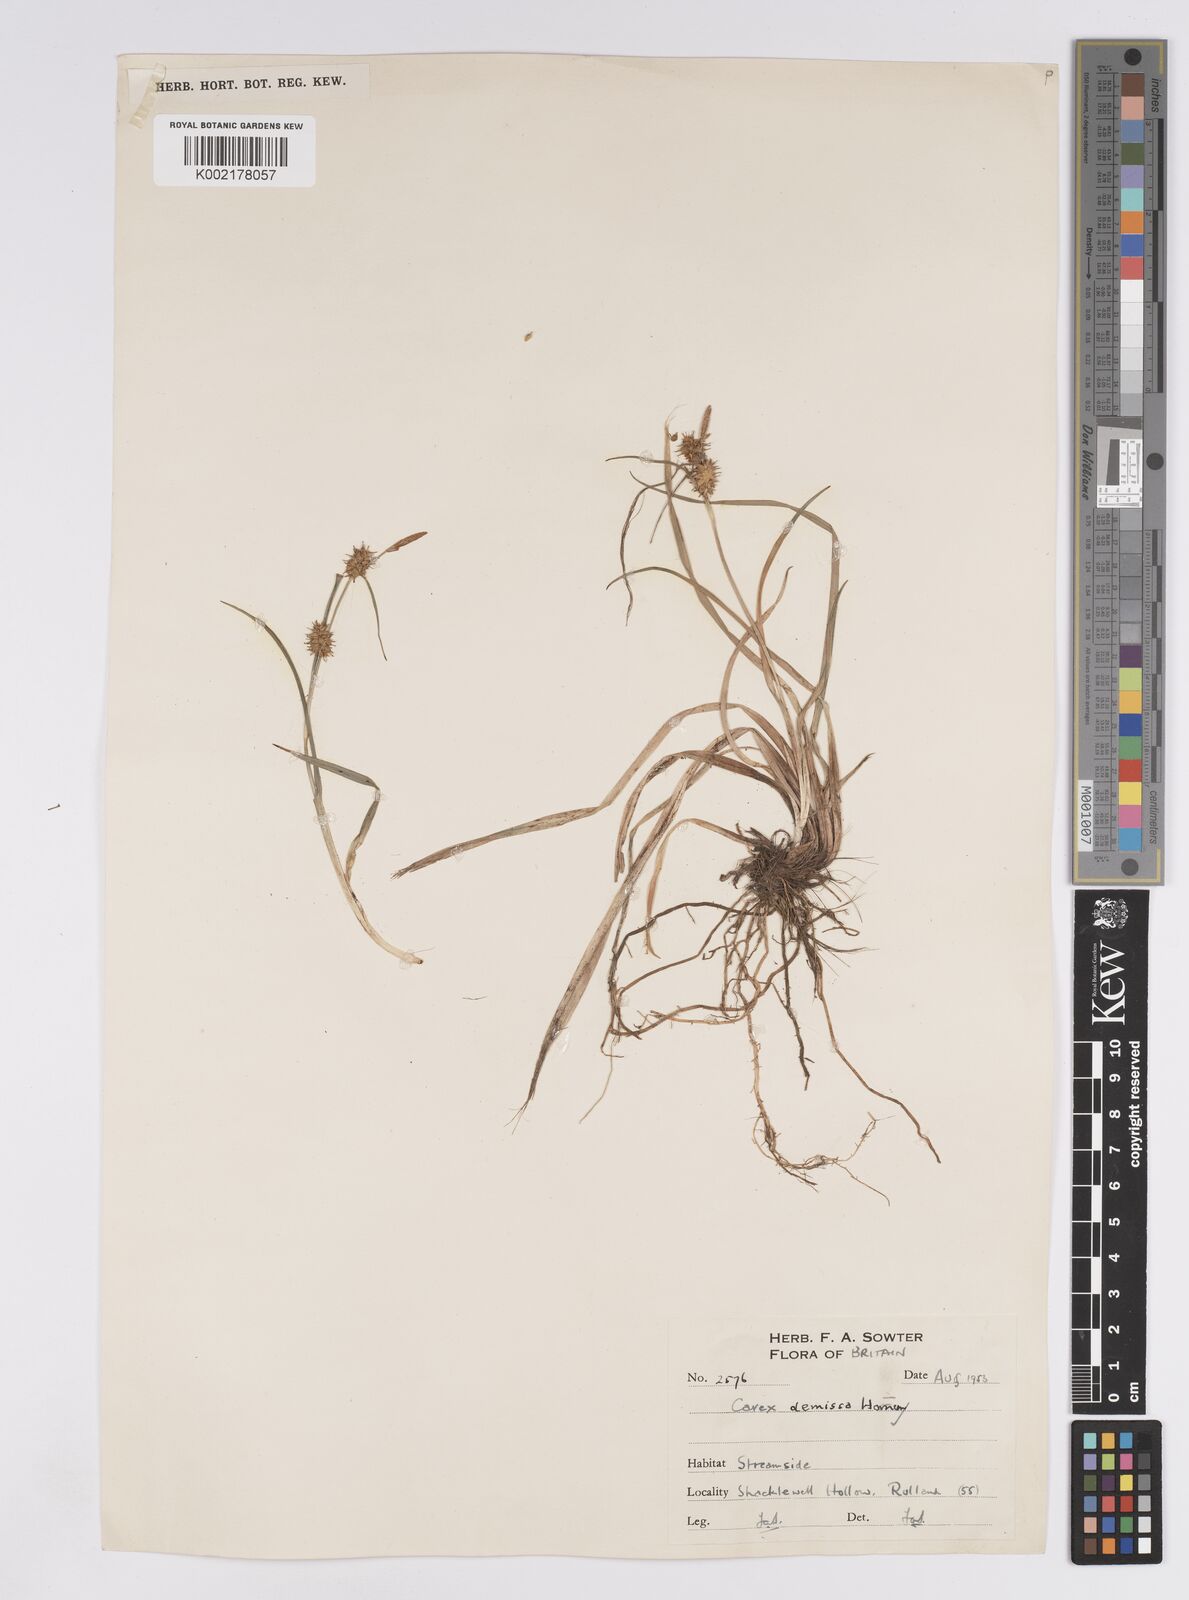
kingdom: Plantae
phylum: Tracheophyta
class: Liliopsida
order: Poales
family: Cyperaceae
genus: Carex
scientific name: Carex demissa
